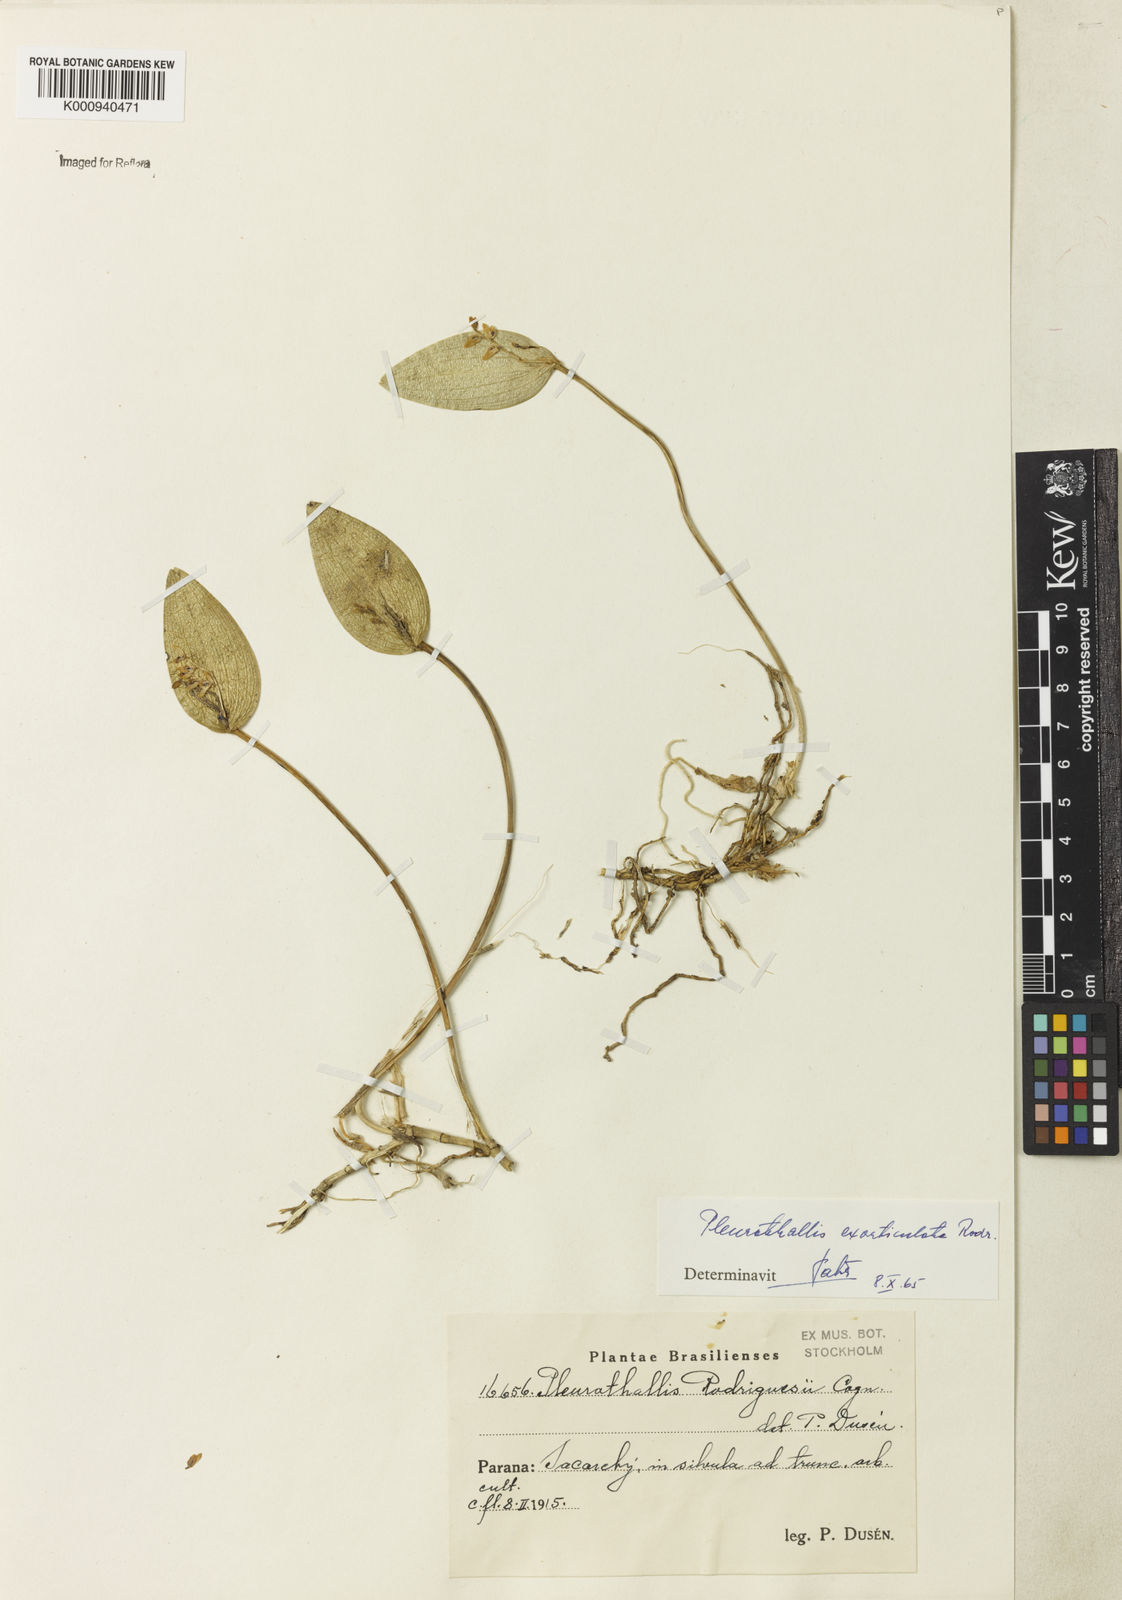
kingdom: Plantae
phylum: Tracheophyta
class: Liliopsida
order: Asparagales
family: Orchidaceae
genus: Acianthera
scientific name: Acianthera rodriguesii
